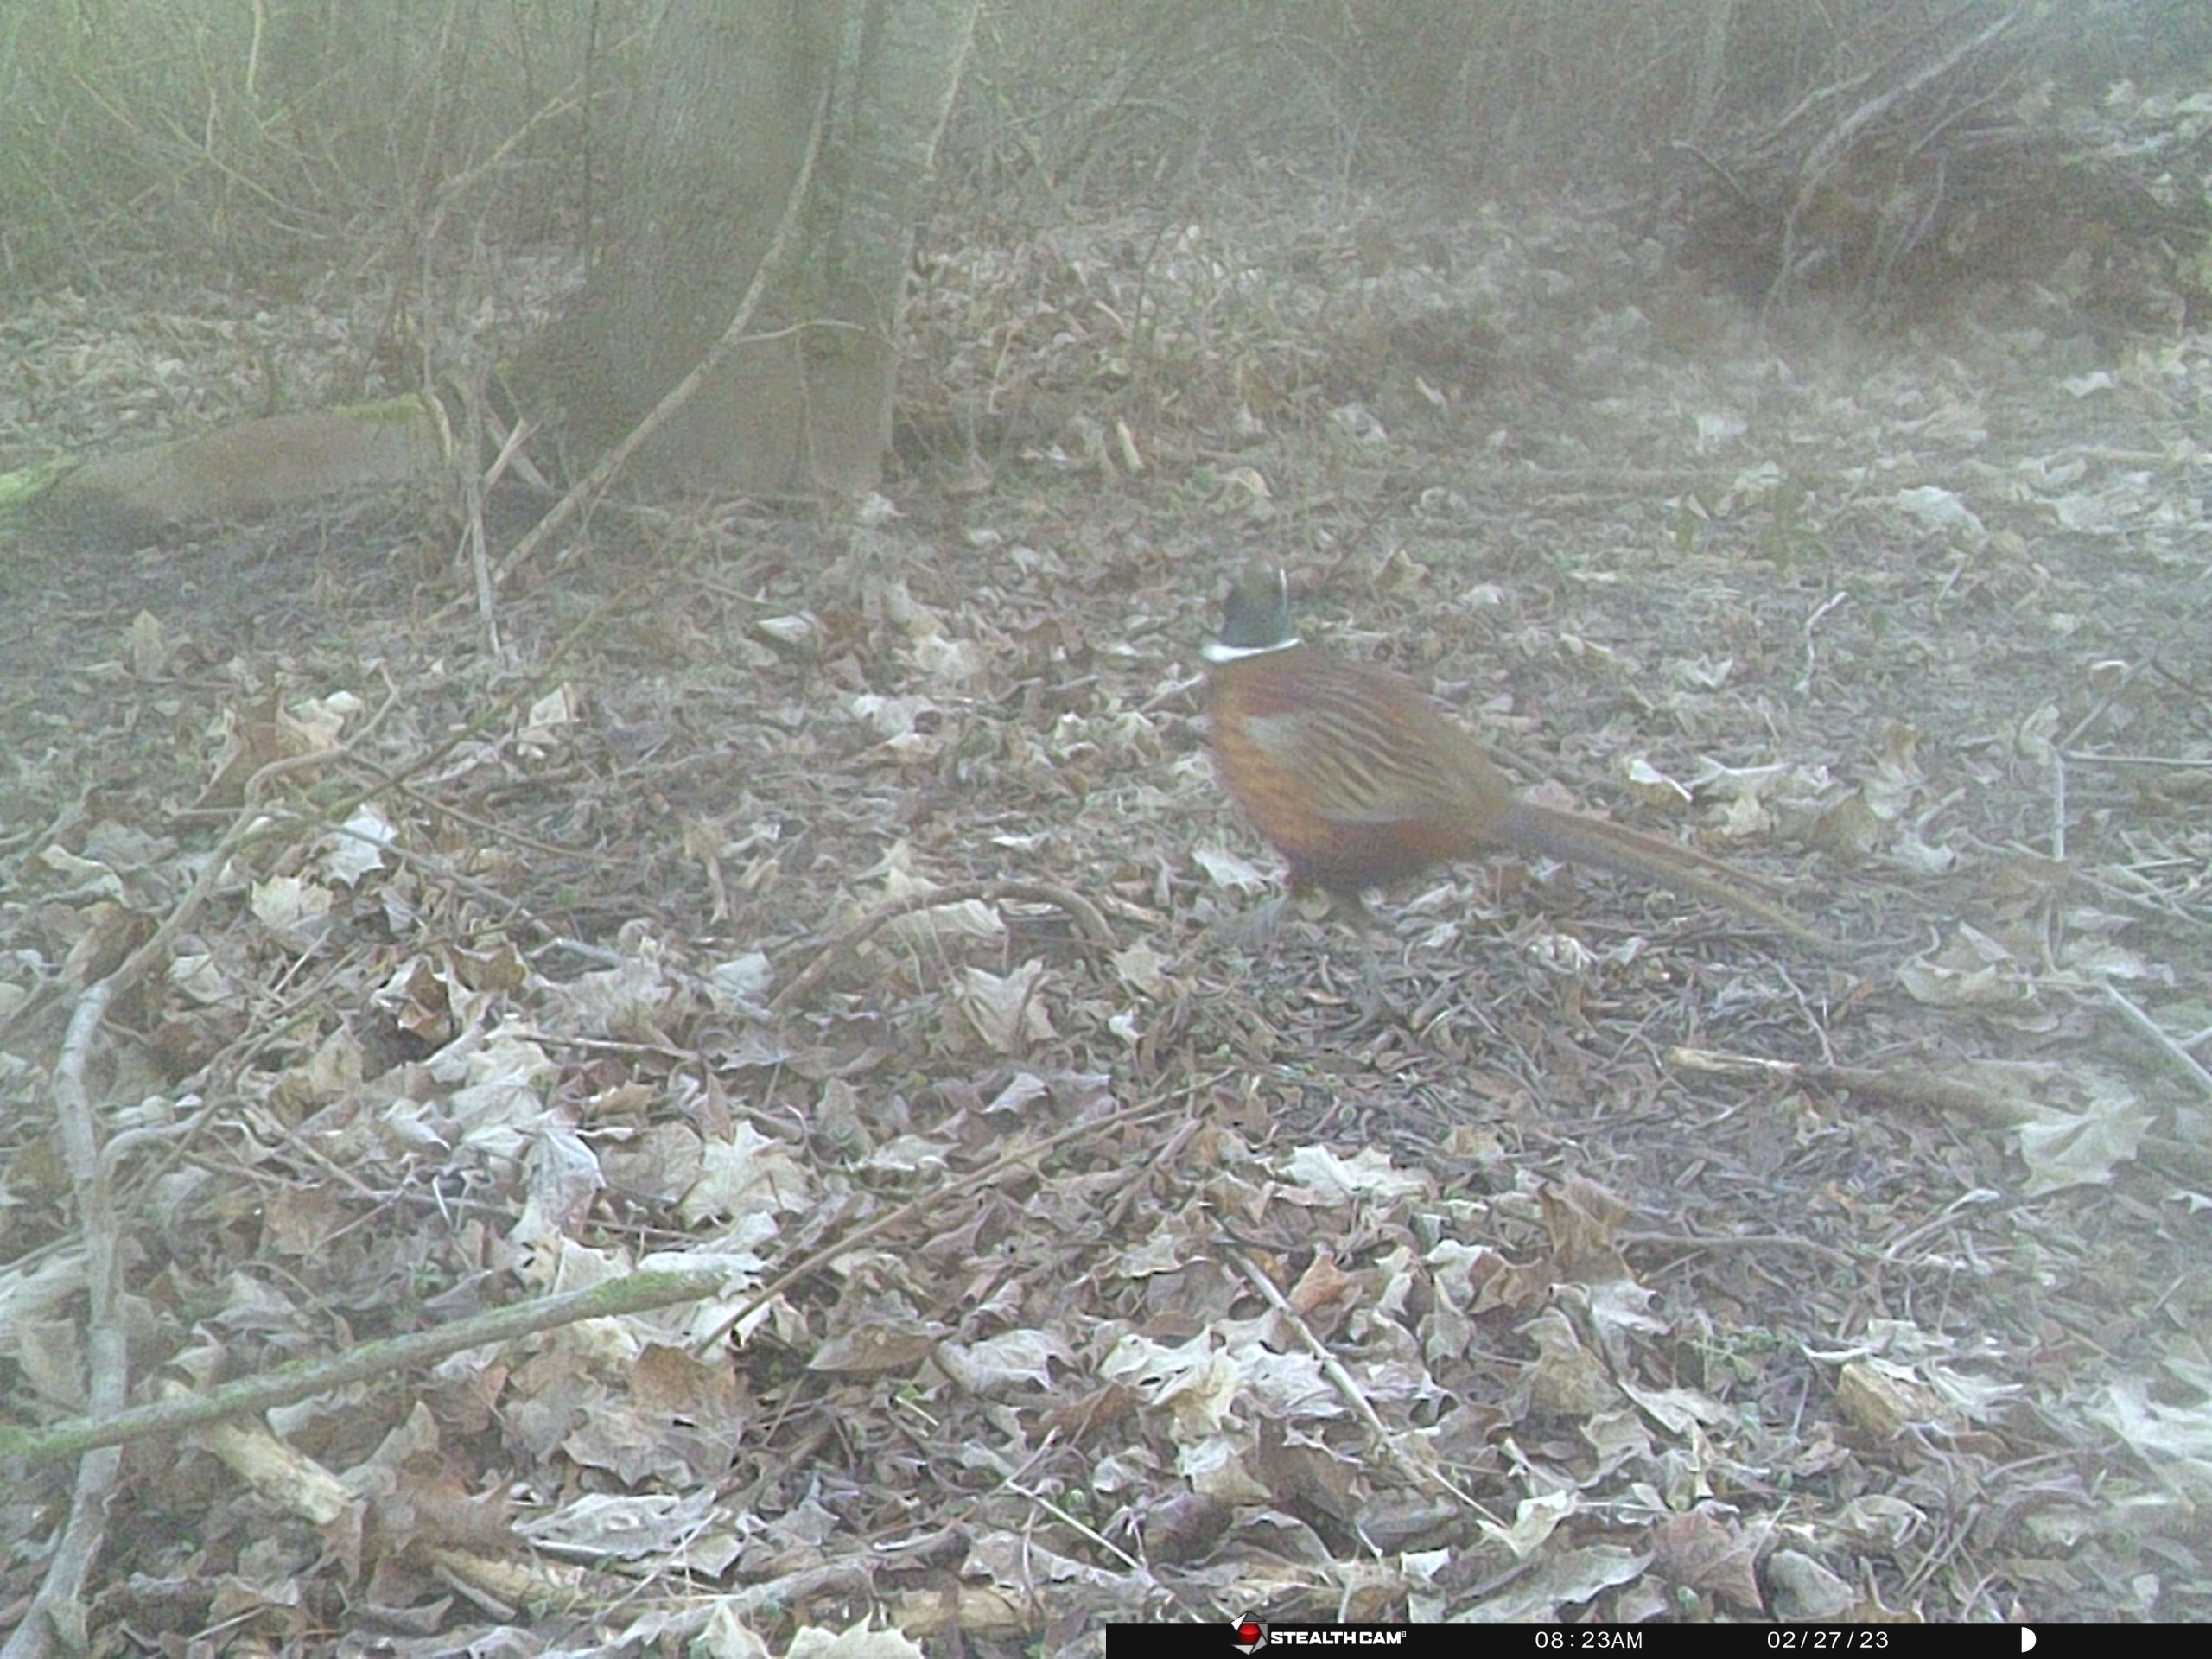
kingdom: Animalia
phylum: Chordata
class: Aves
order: Galliformes
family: Phasianidae
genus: Phasianus
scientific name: Phasianus colchicus
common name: Fasan
